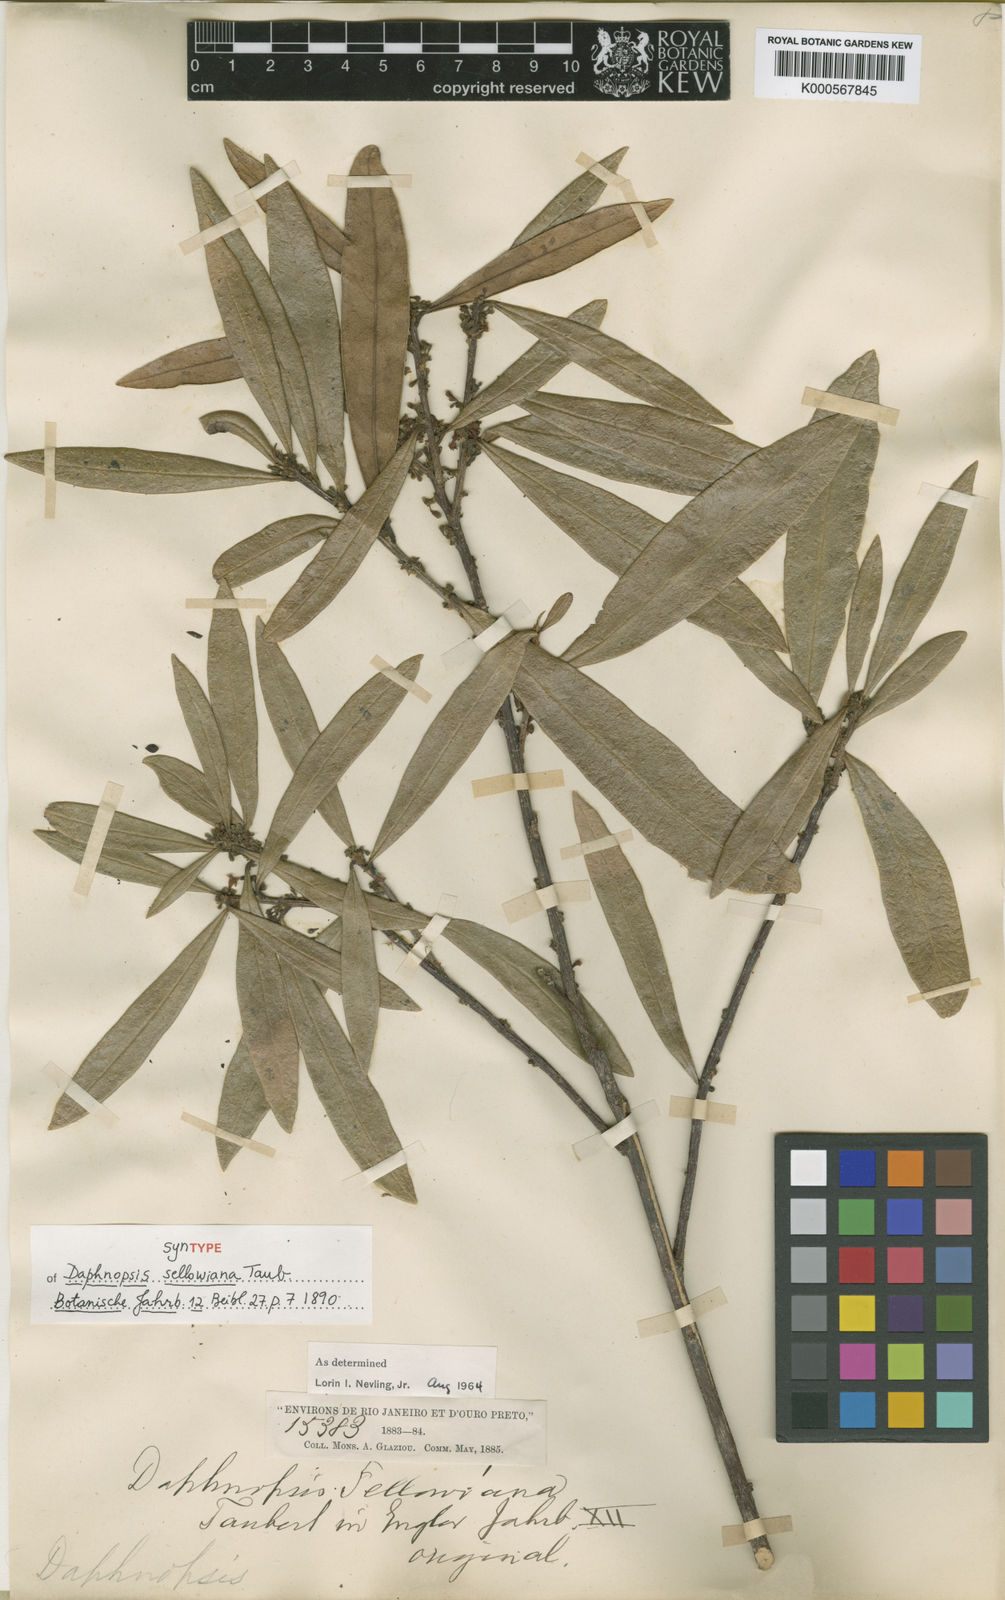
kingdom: Plantae
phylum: Tracheophyta
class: Magnoliopsida
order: Malvales
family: Thymelaeaceae
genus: Daphnopsis
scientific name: Daphnopsis sellowiana
